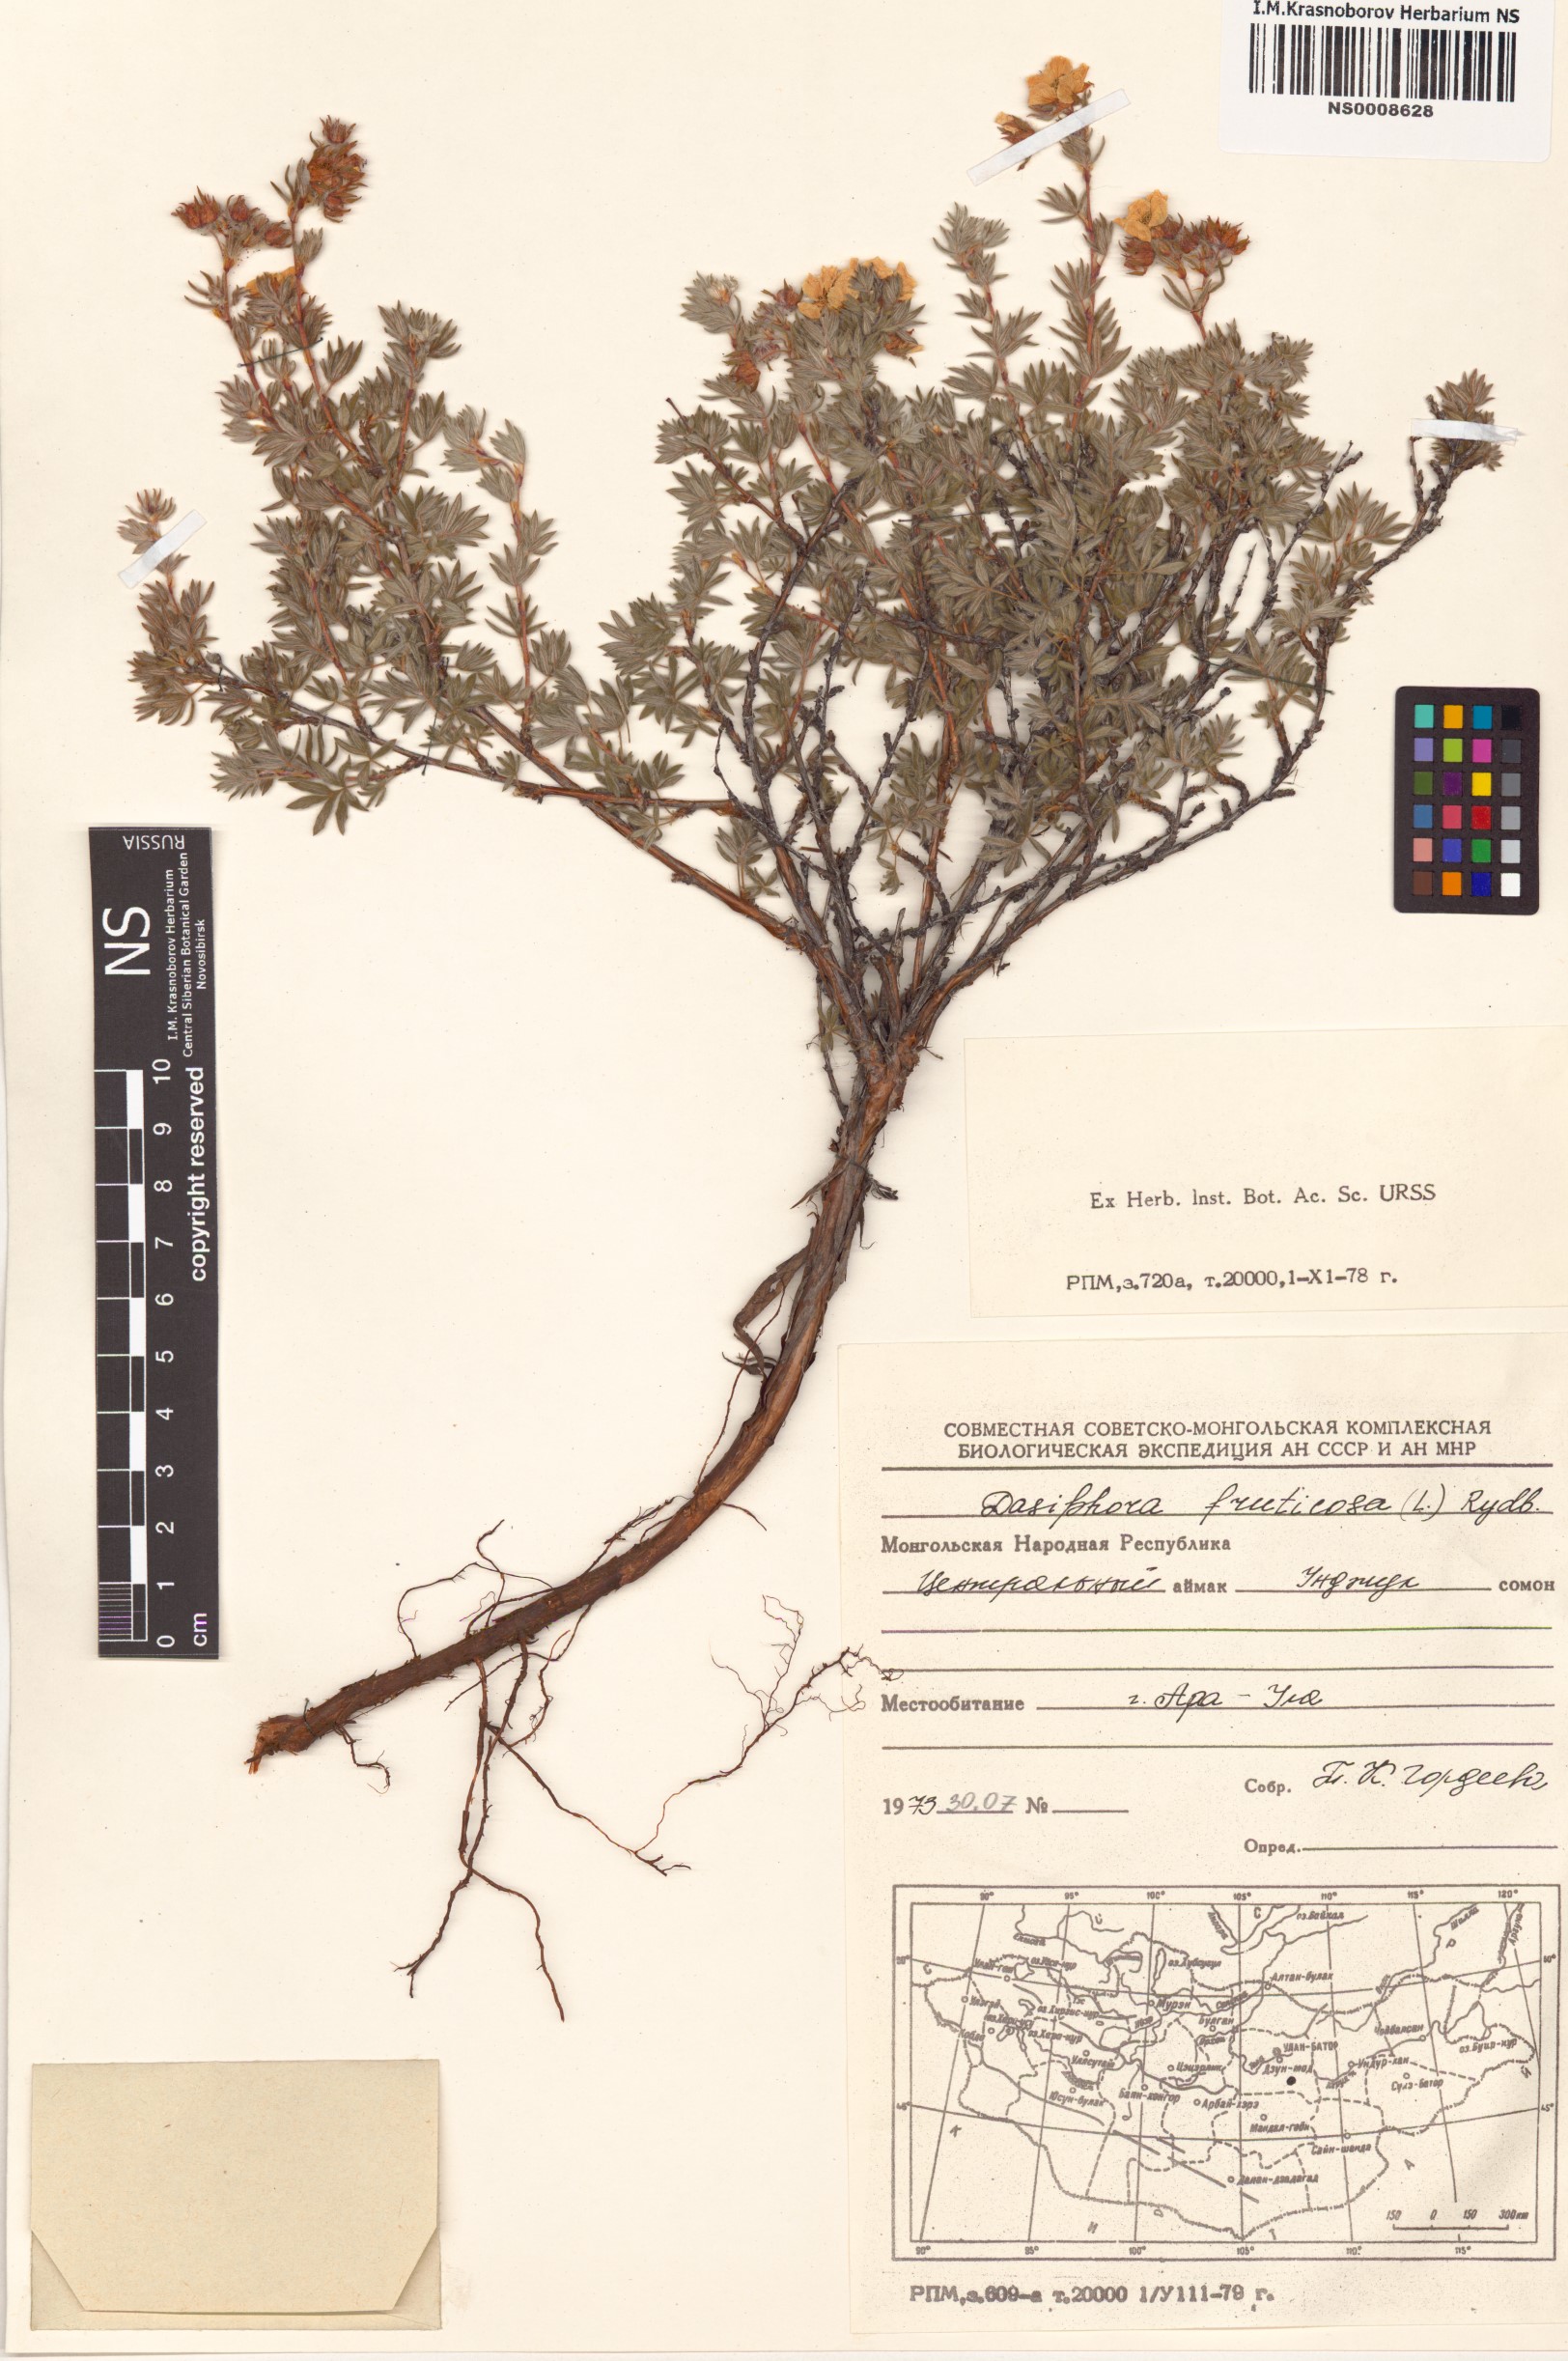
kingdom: Plantae
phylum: Tracheophyta
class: Magnoliopsida
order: Rosales
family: Rosaceae
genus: Dasiphora
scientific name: Dasiphora fruticosa
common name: Shrubby cinquefoil
